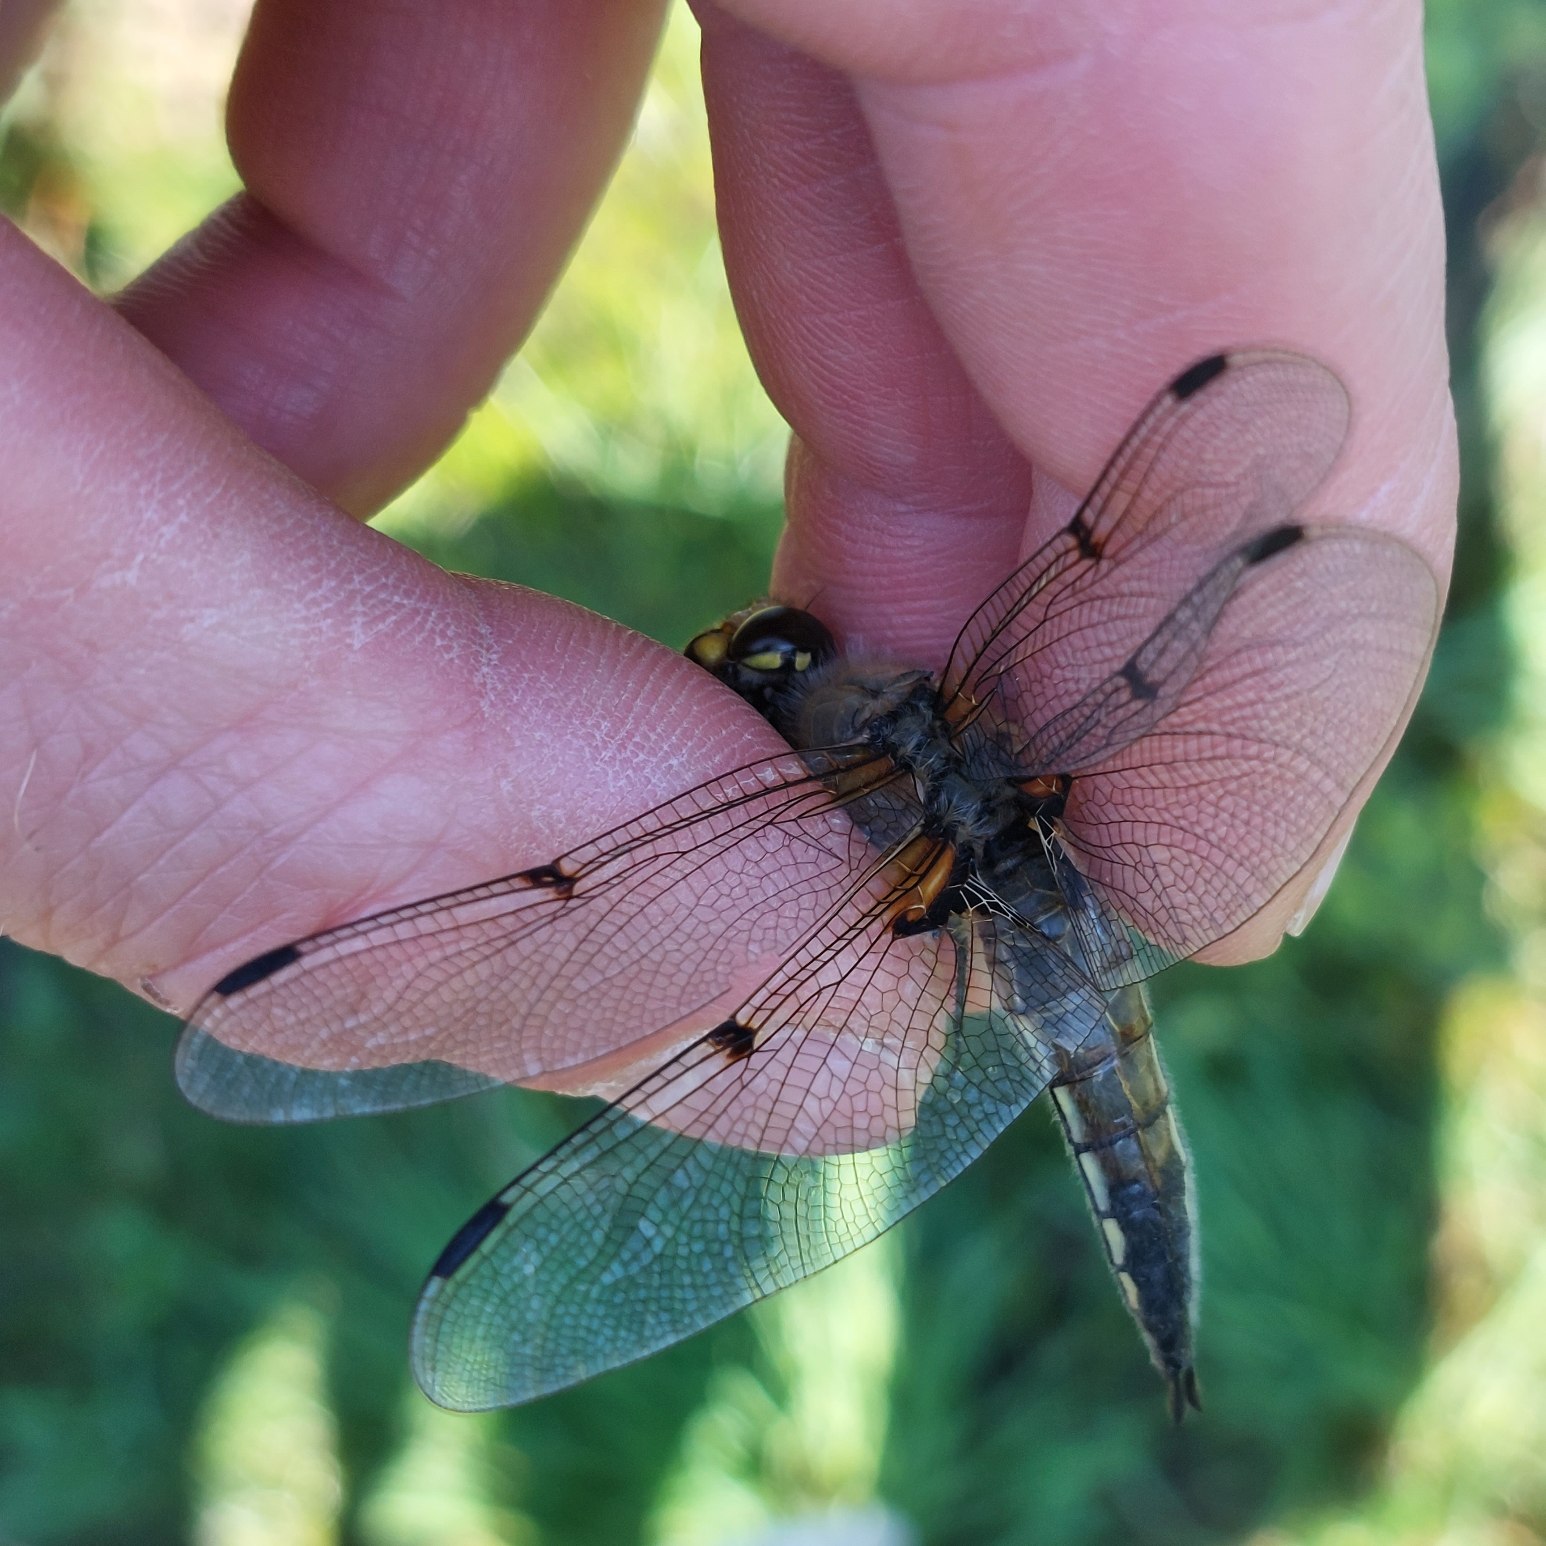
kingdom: Animalia
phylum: Arthropoda
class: Insecta
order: Odonata
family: Libellulidae
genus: Libellula
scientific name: Libellula quadrimaculata
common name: Fireplettet libel
